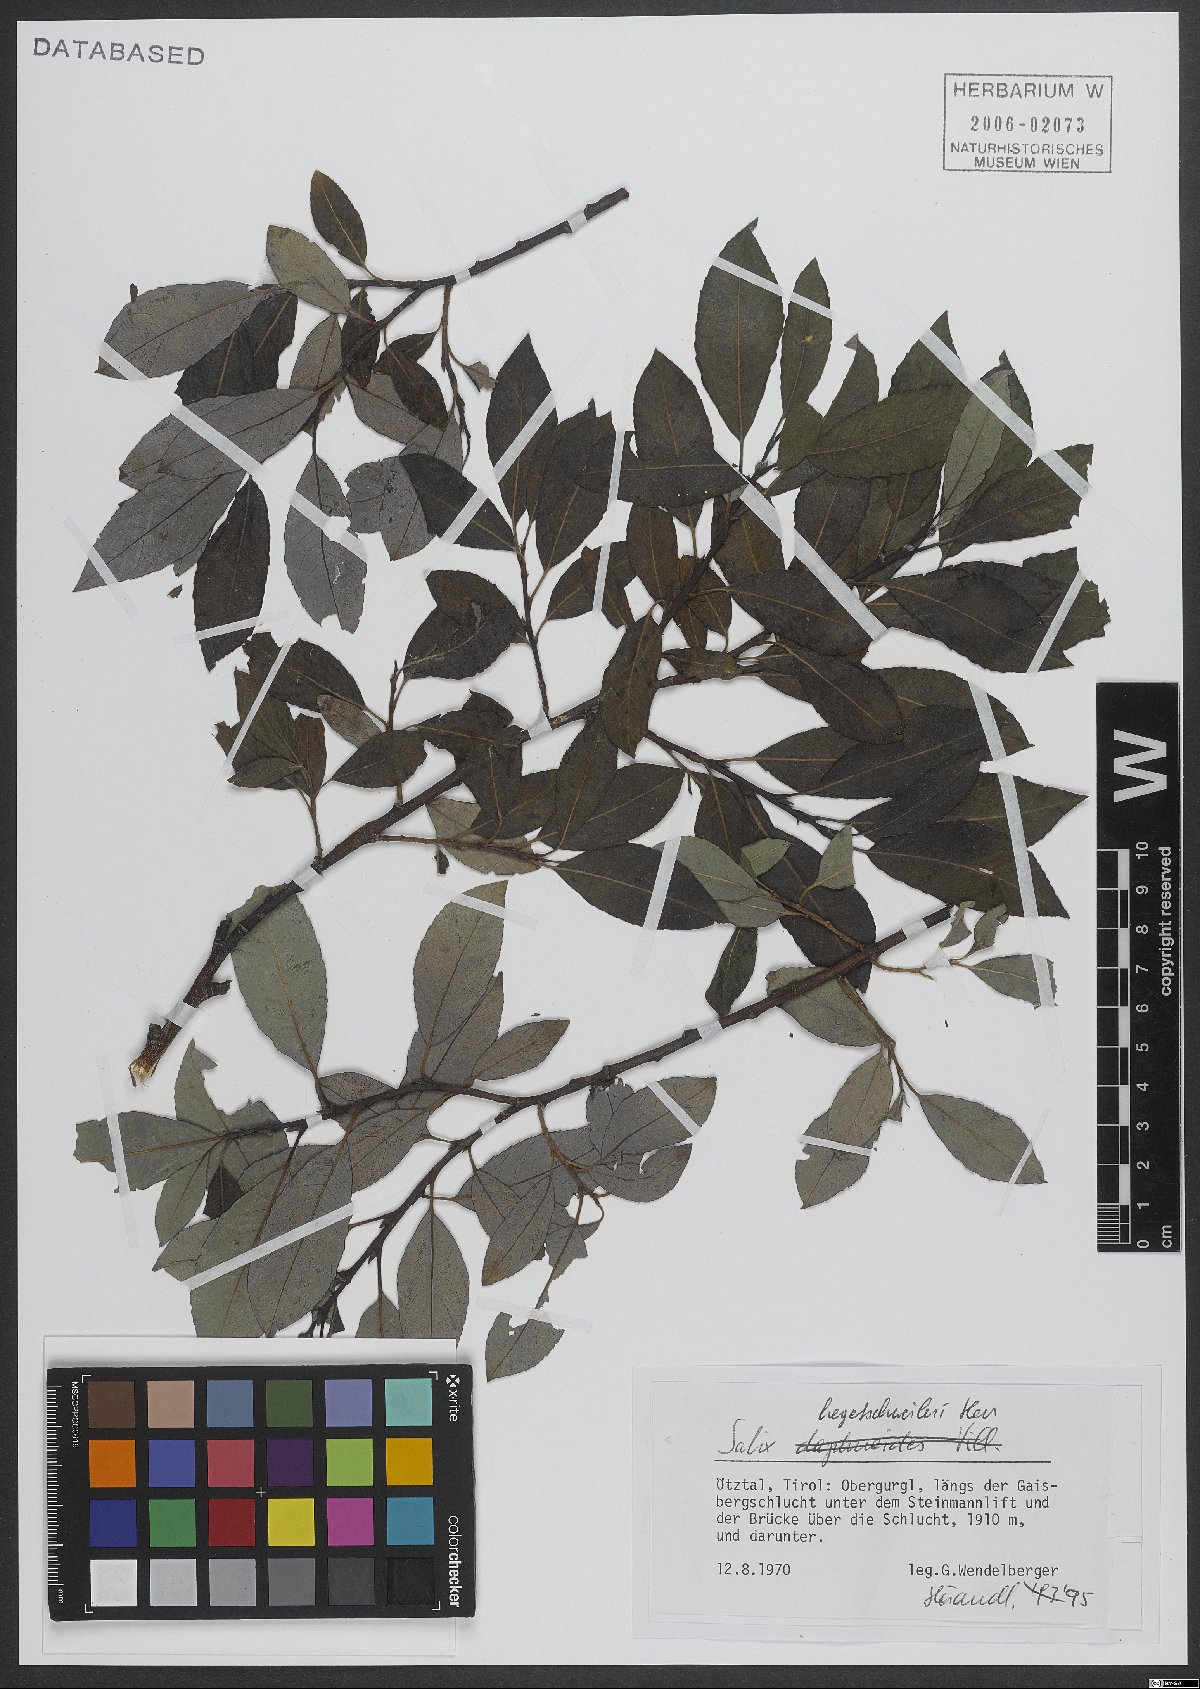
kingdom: Plantae
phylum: Tracheophyta
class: Magnoliopsida
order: Malpighiales
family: Salicaceae
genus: Salix
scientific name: Salix hegetschweileri
